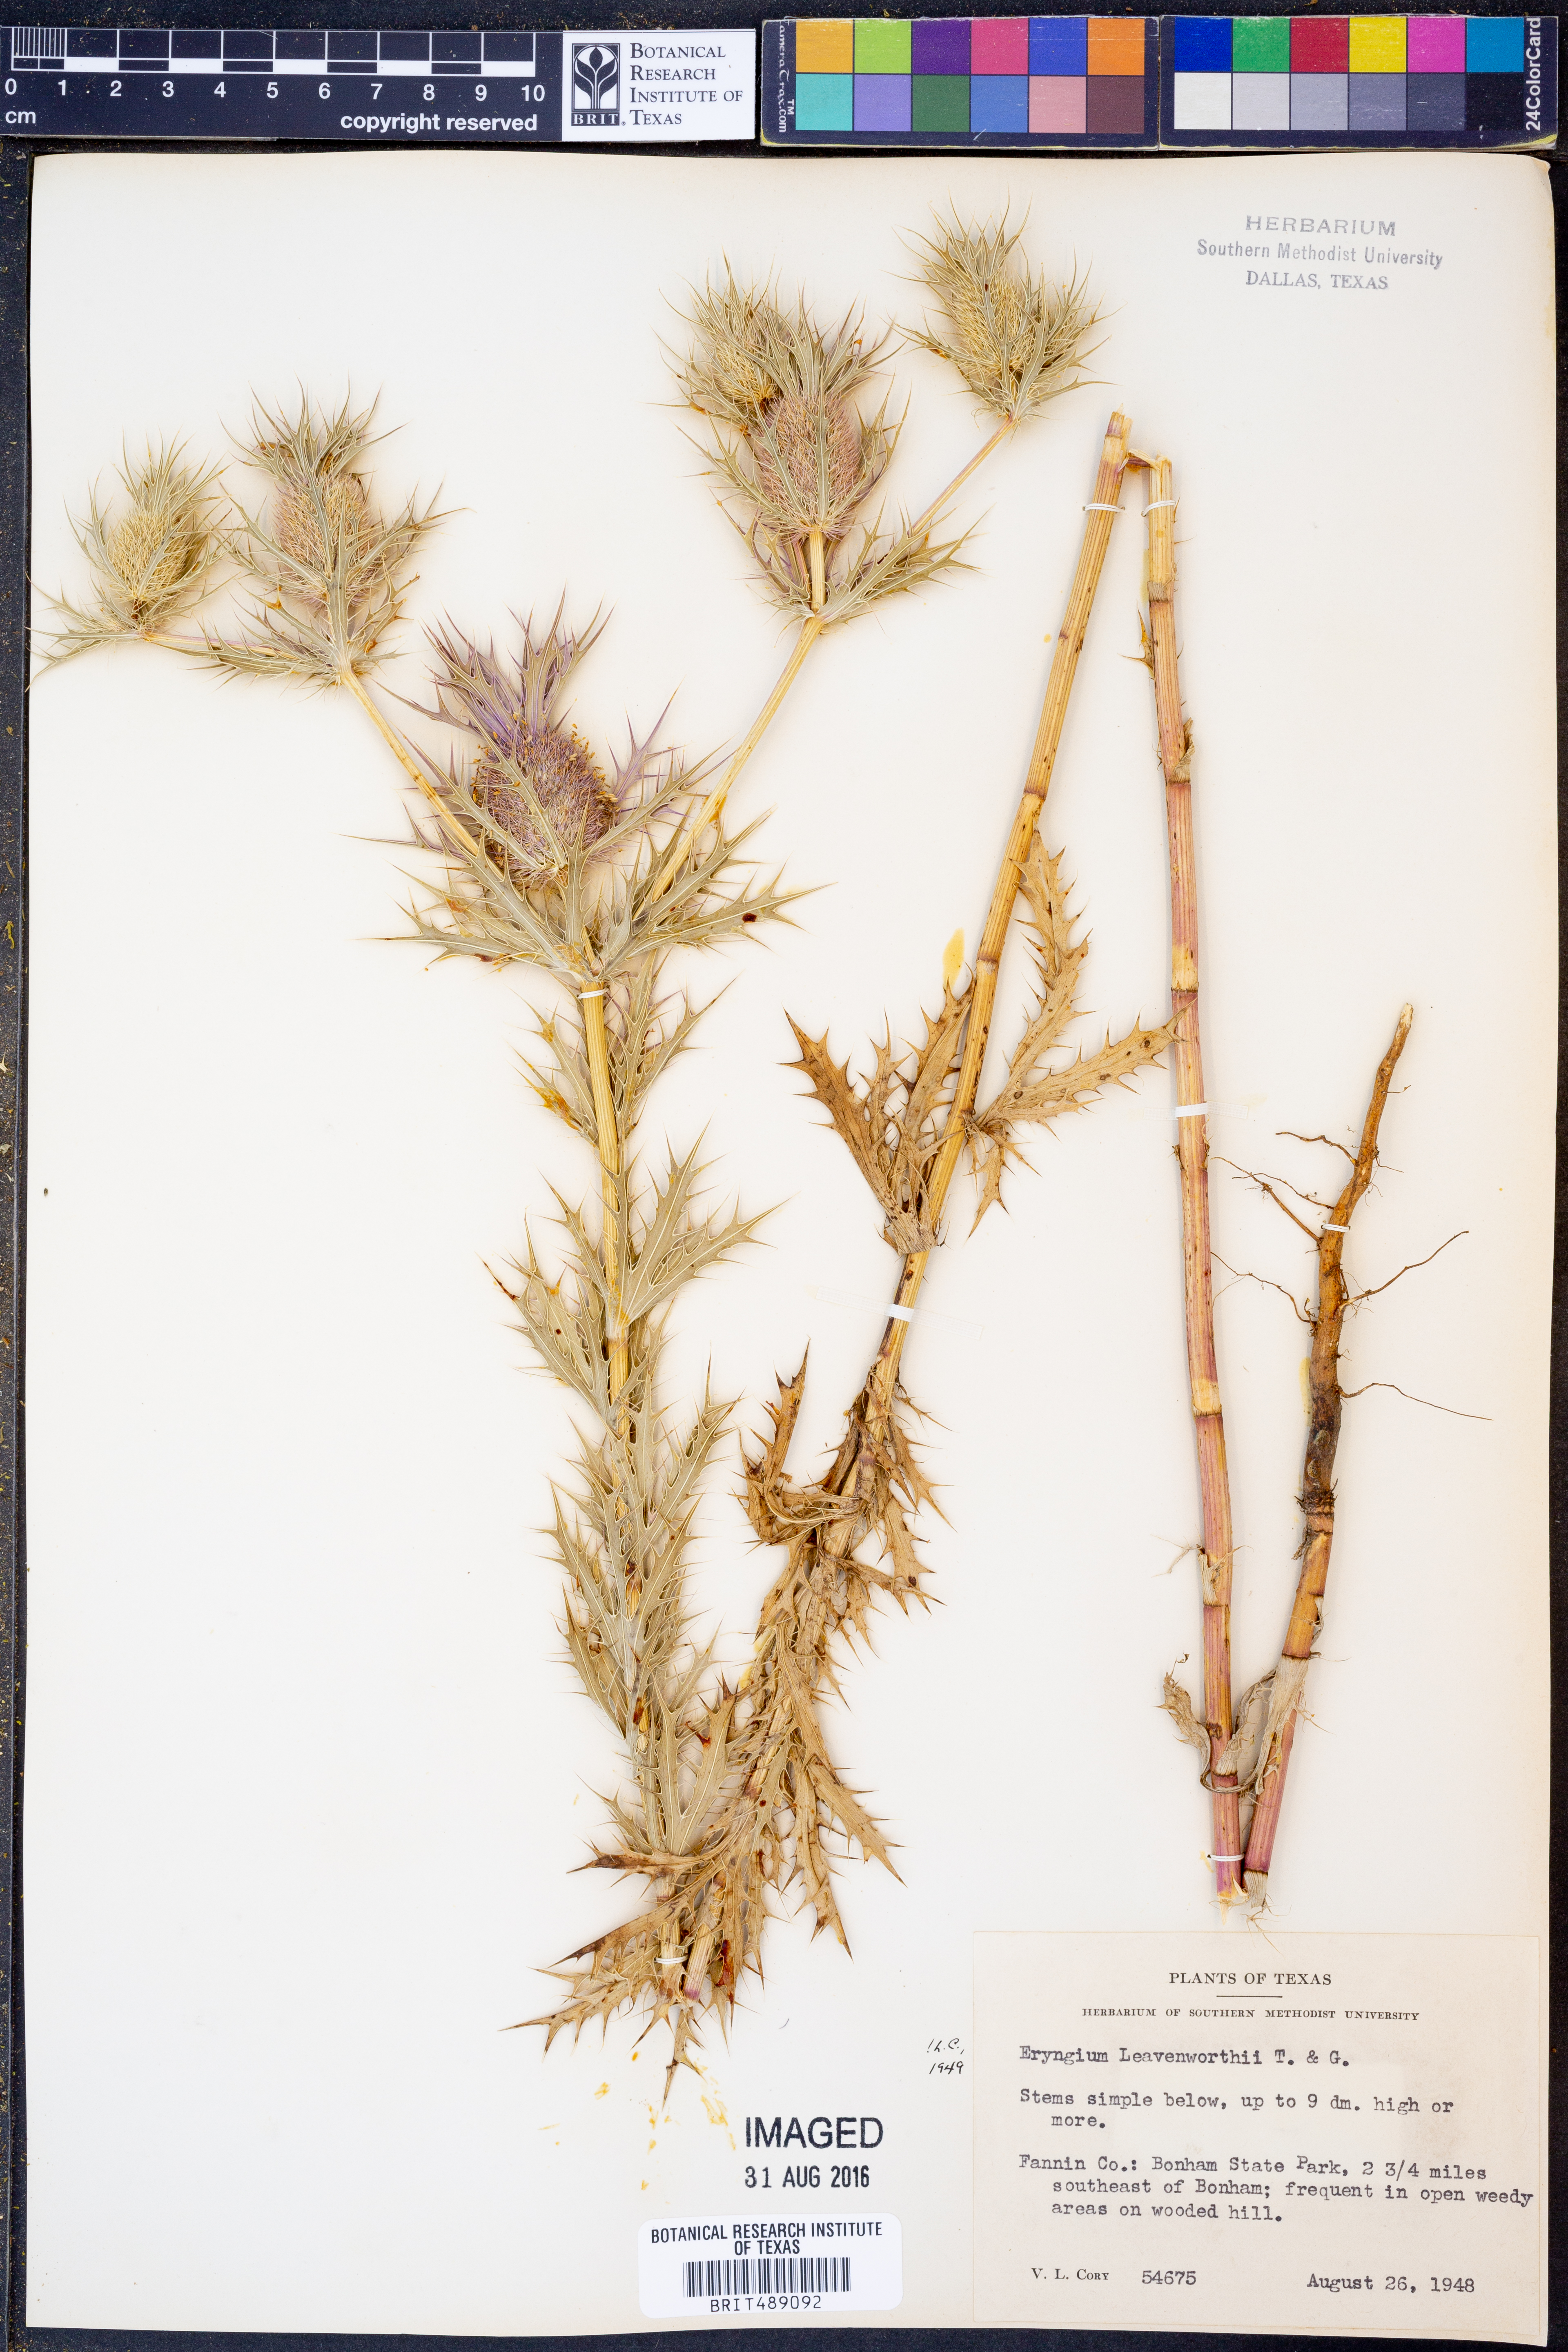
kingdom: Plantae
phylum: Tracheophyta
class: Magnoliopsida
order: Apiales
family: Apiaceae
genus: Eryngium
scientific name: Eryngium leavenworthii
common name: Leavenworth's eryngo
